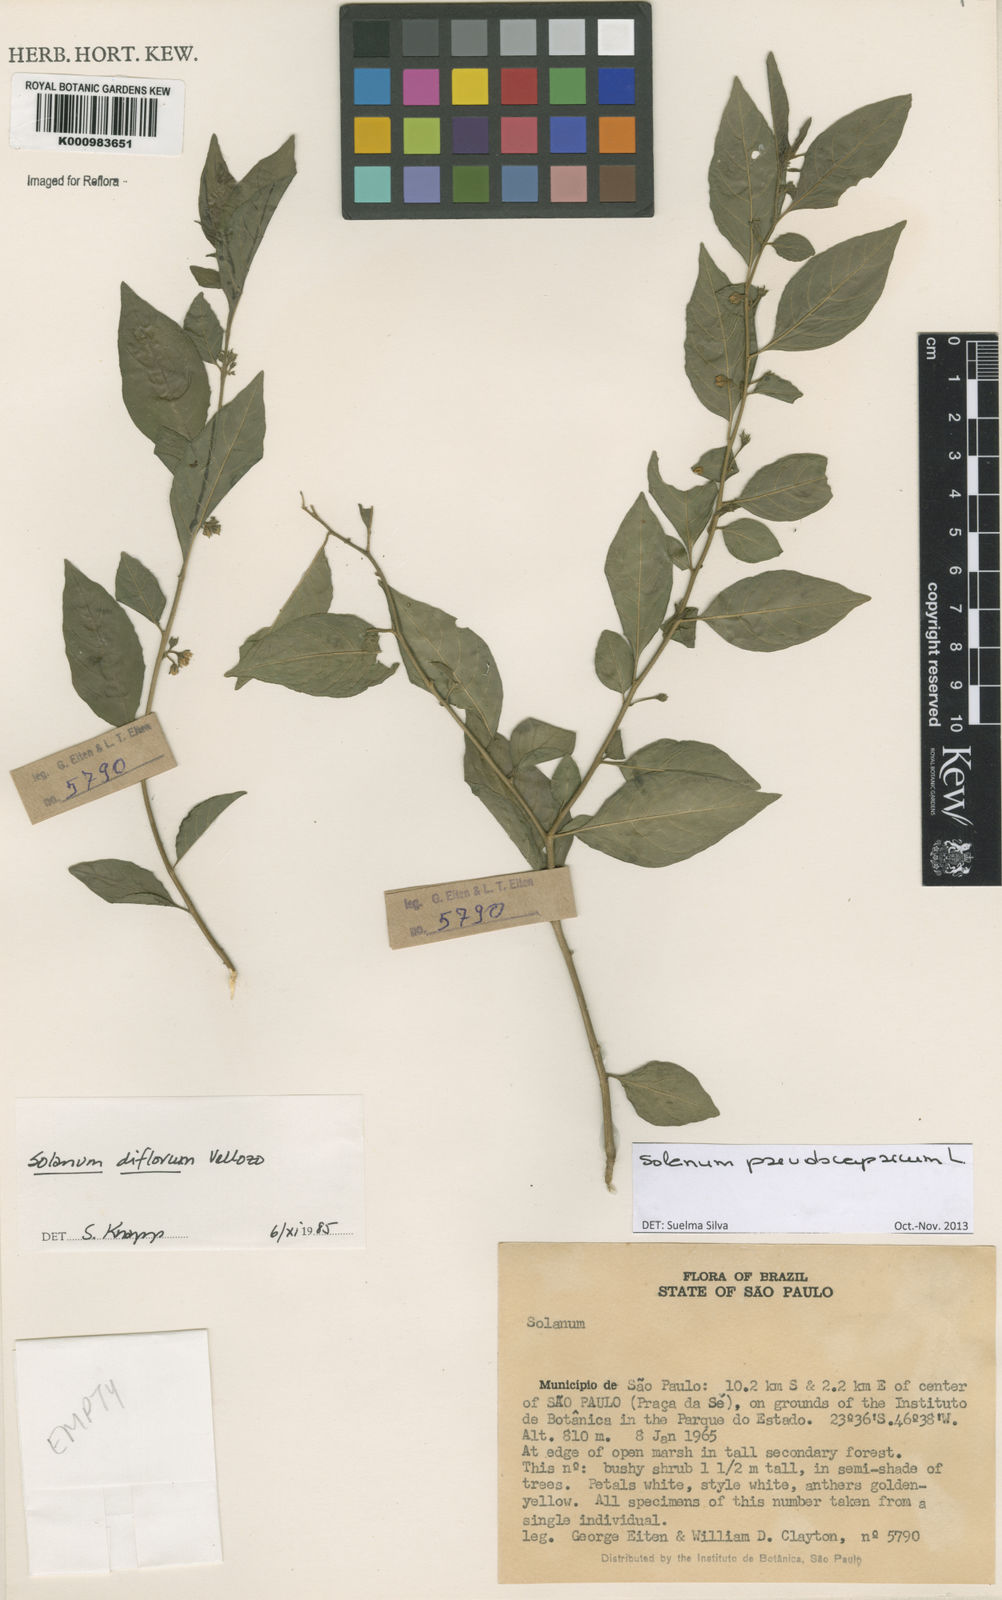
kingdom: Plantae
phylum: Tracheophyta
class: Magnoliopsida
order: Solanales
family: Solanaceae
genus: Solanum
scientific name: Solanum pseudocapsicum
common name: Jerusalem cherry
